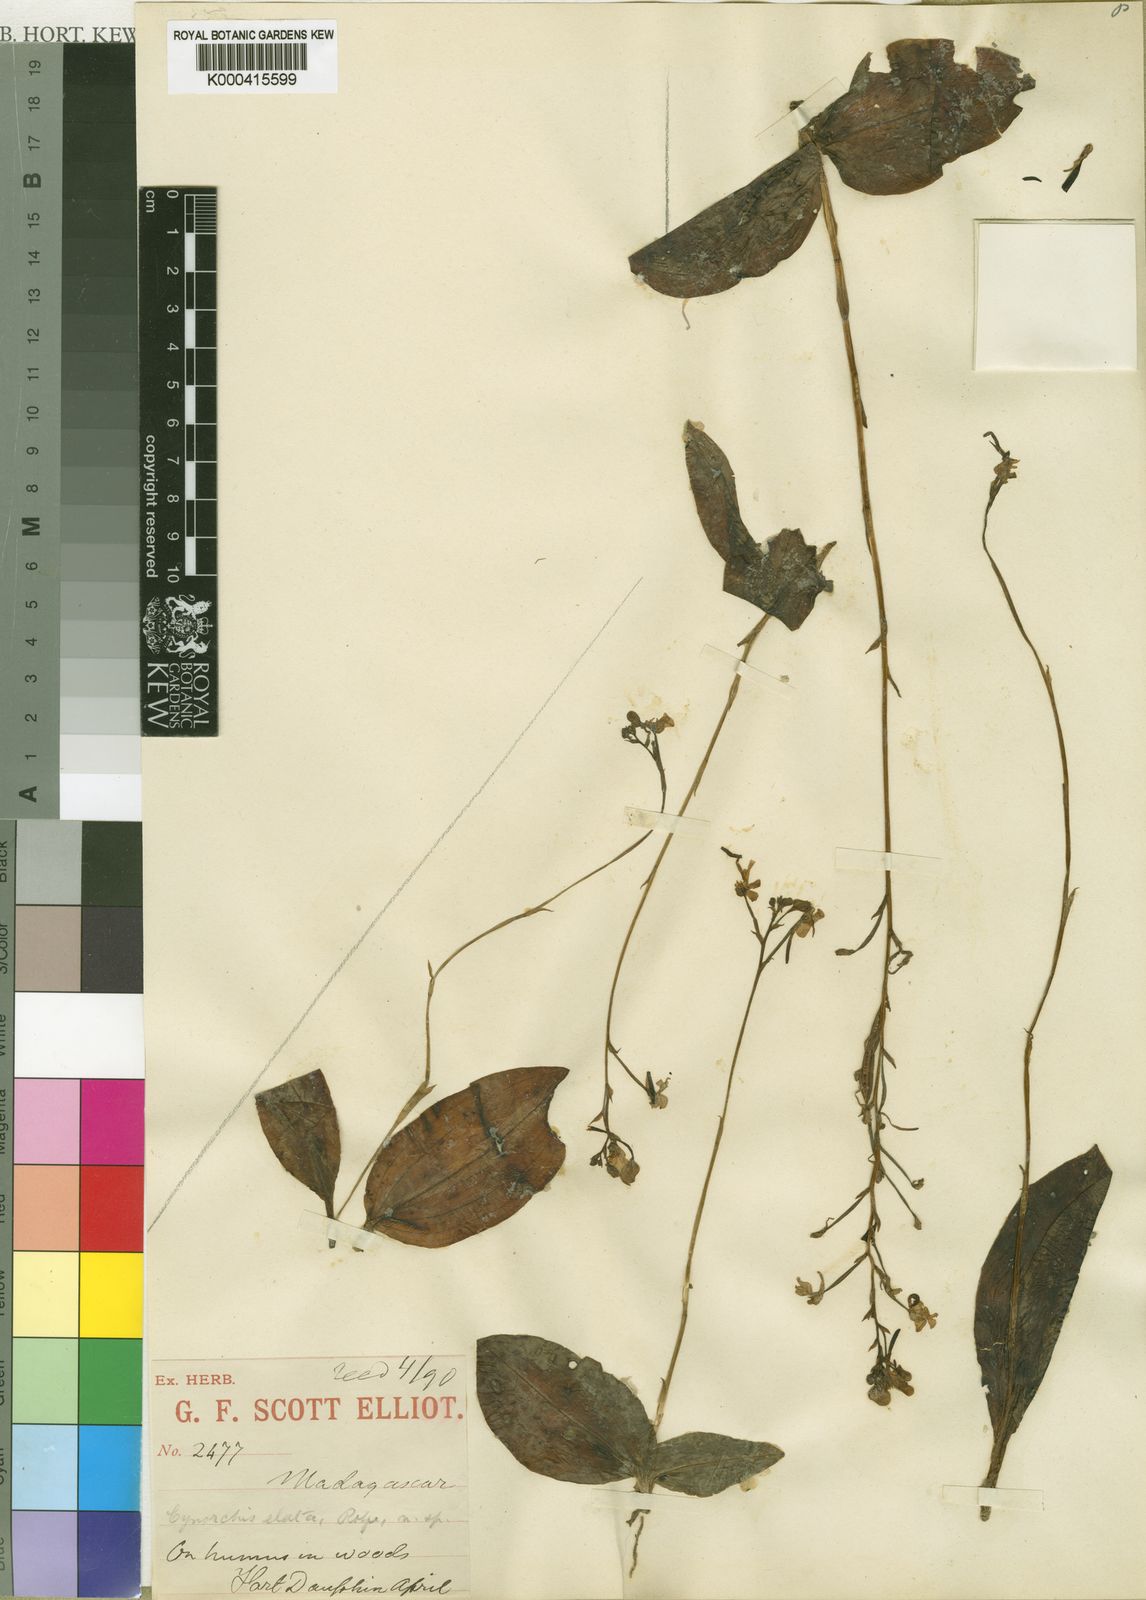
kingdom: Plantae
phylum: Tracheophyta
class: Liliopsida
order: Asparagales
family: Orchidaceae
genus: Cynorkis
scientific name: Cynorkis elegans
